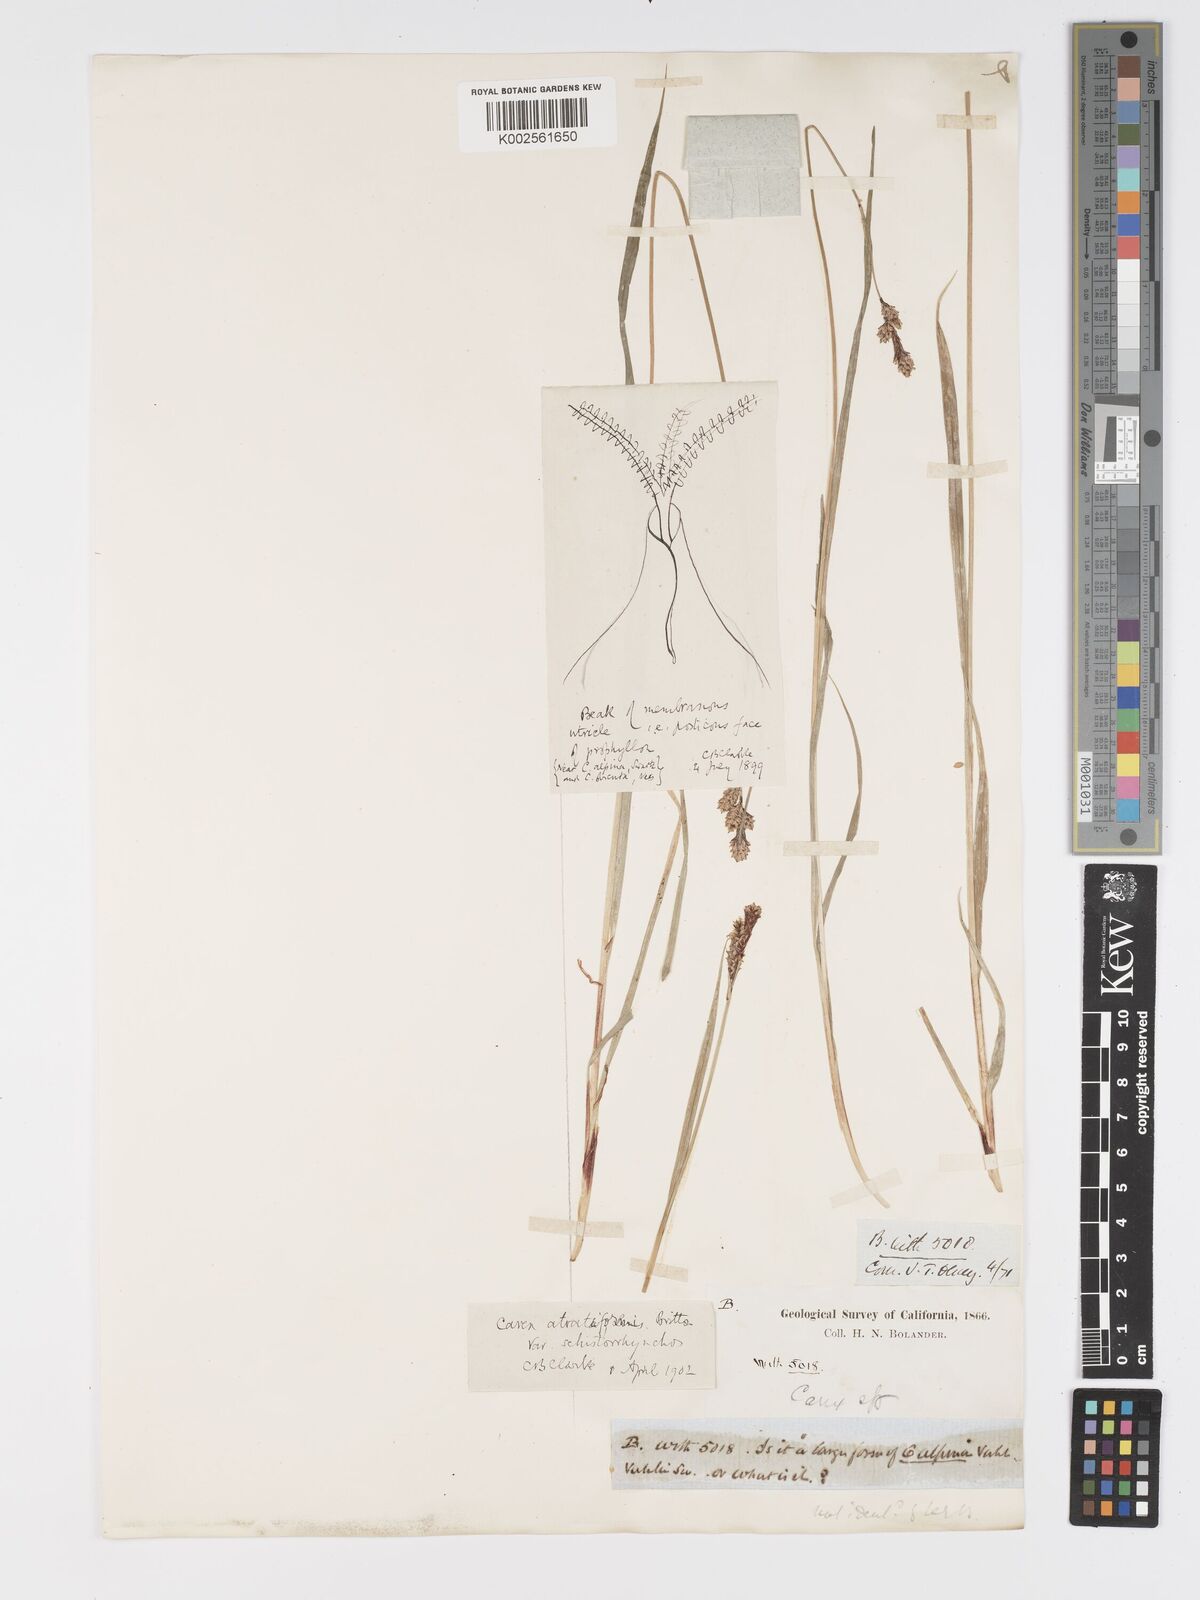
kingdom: Plantae
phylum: Tracheophyta
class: Liliopsida
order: Poales
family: Cyperaceae
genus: Carex
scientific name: Carex heteroneura
